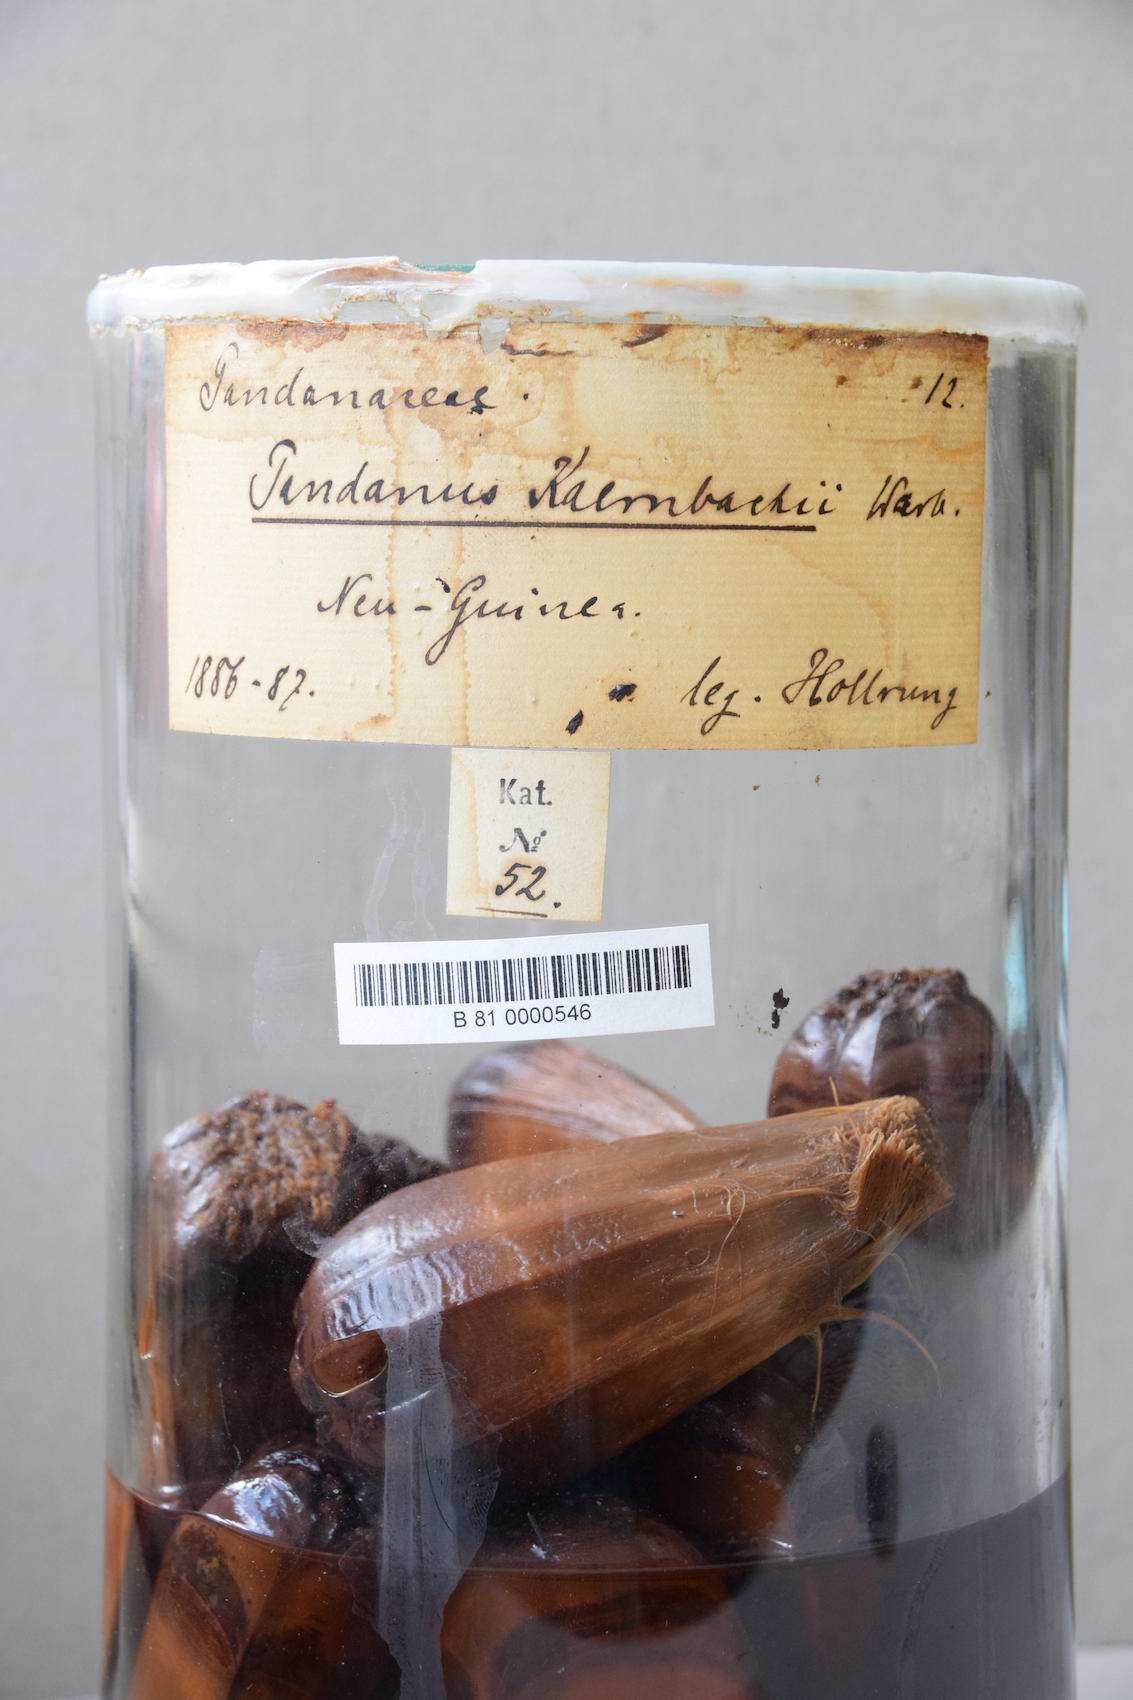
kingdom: Plantae
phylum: Tracheophyta
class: Liliopsida
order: Pandanales
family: Pandanaceae
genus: Pandanus
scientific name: Pandanus kaernbachii
